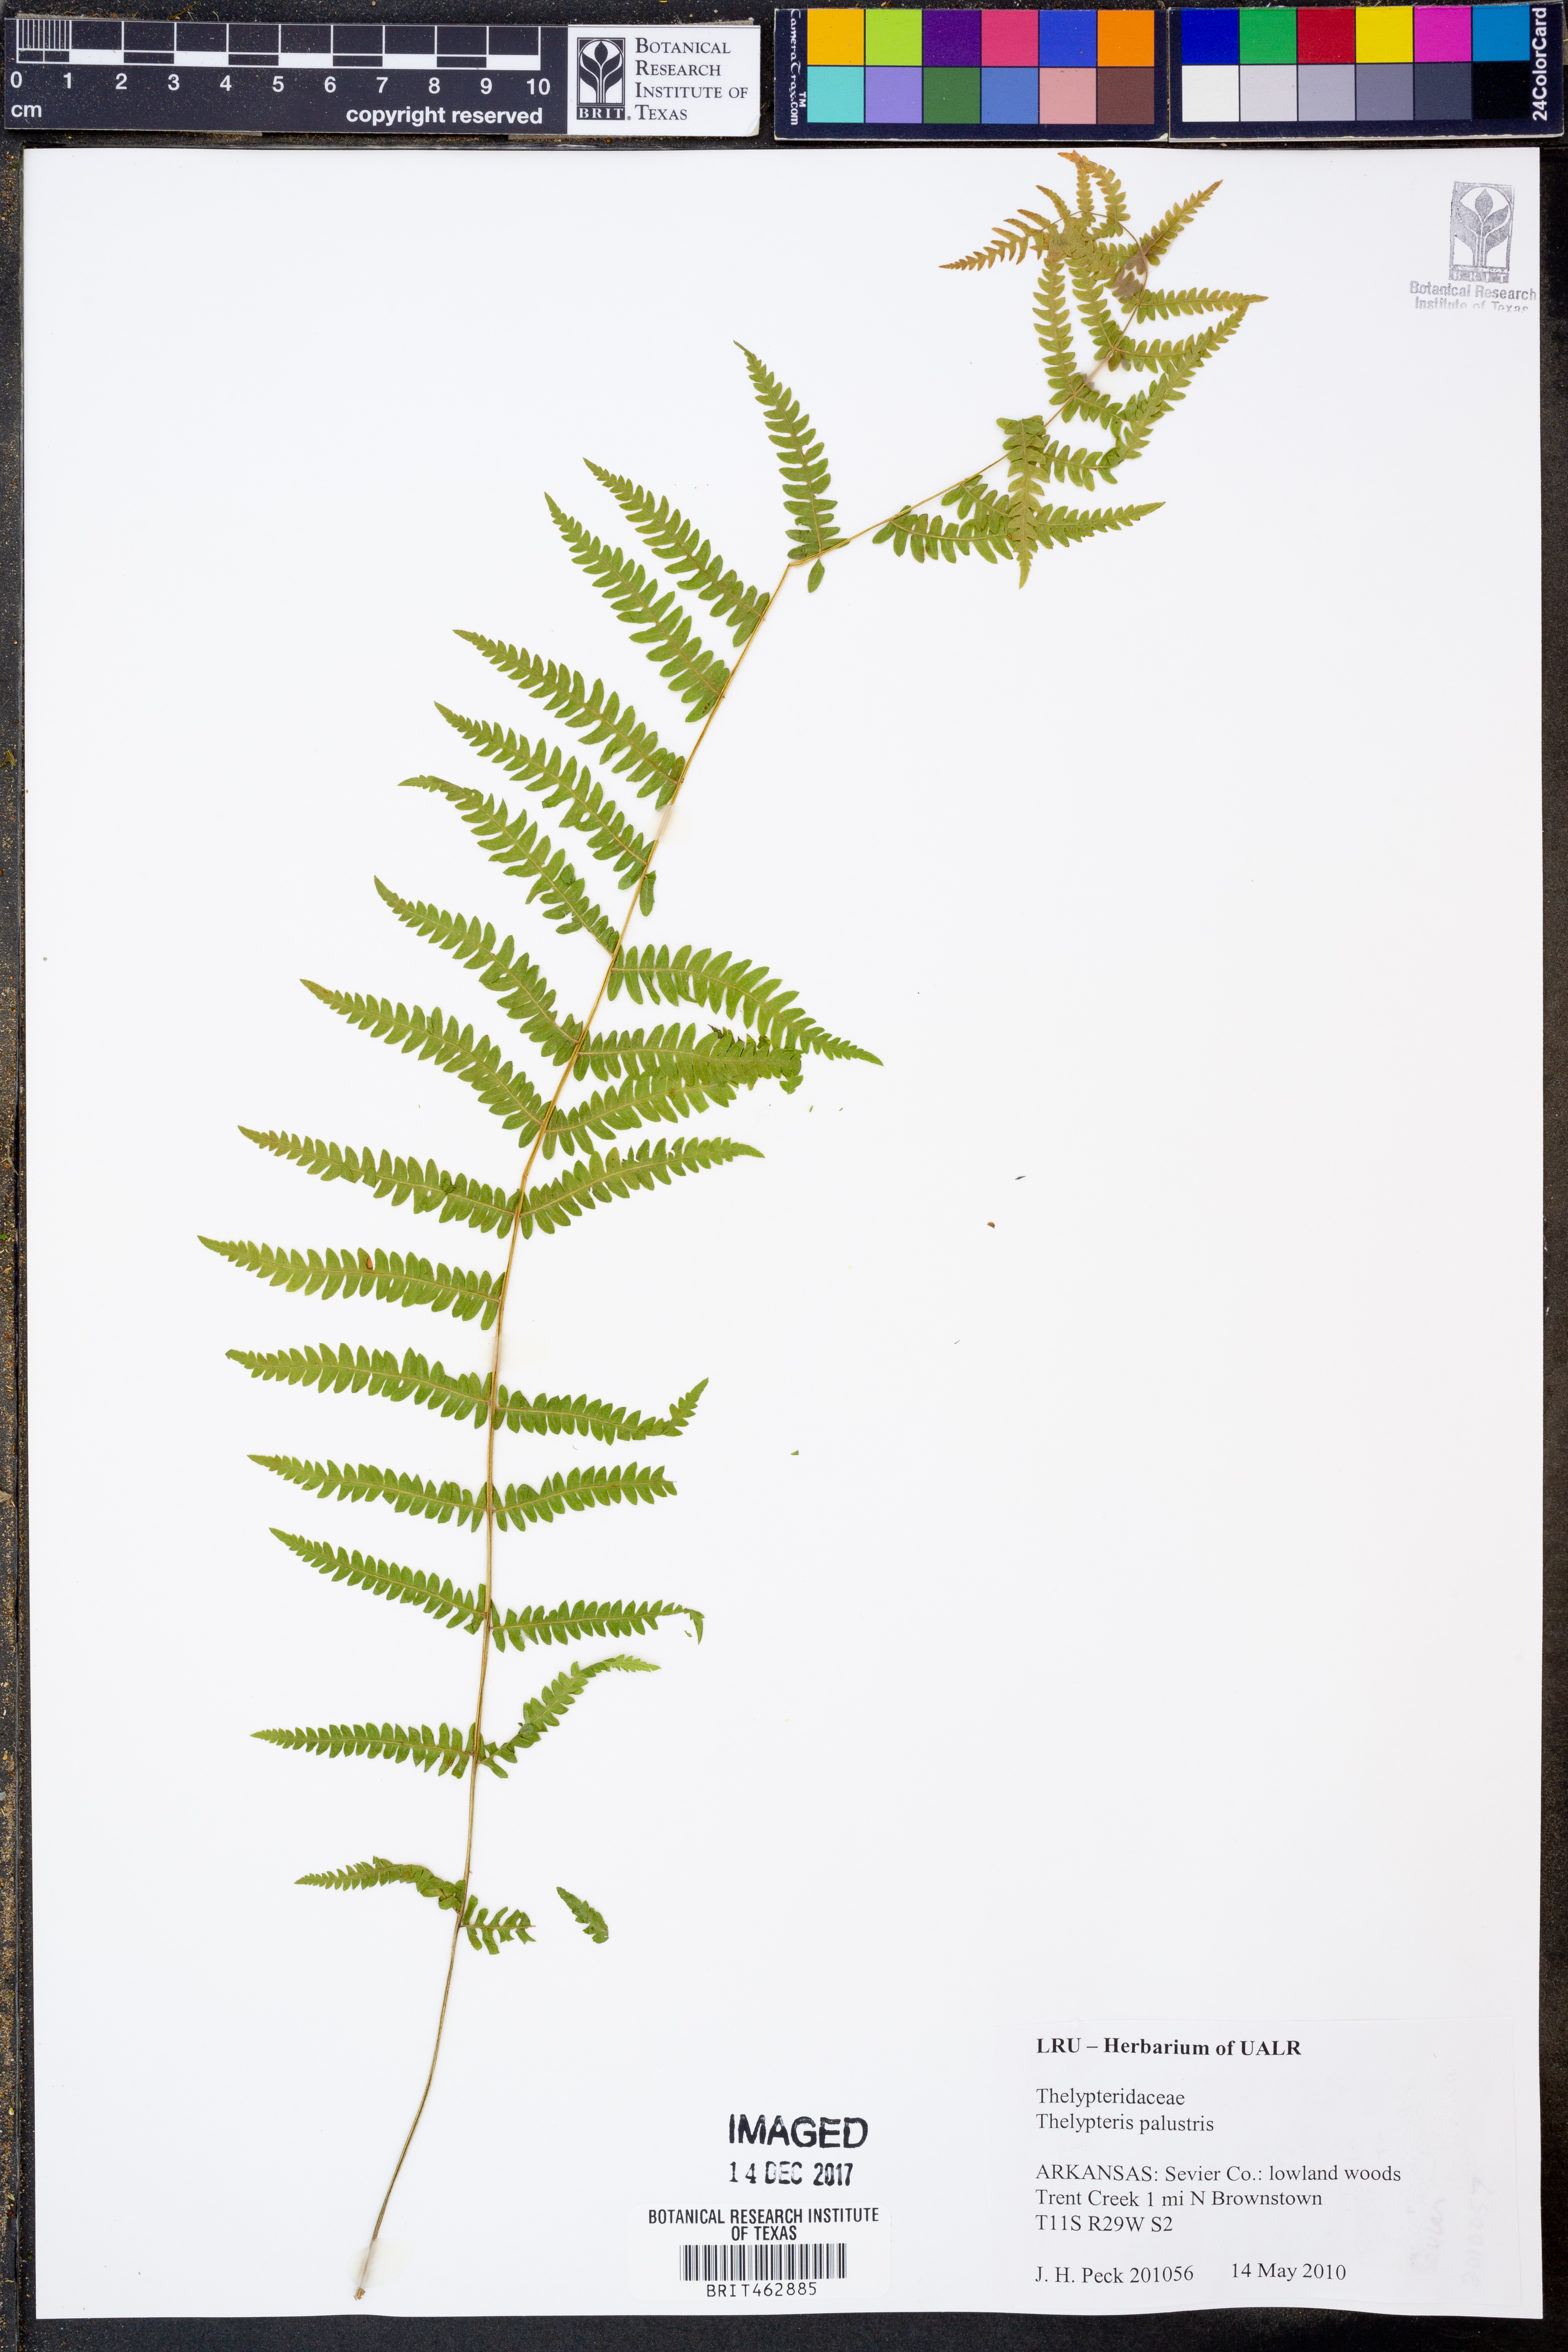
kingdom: Plantae
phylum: Tracheophyta
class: Polypodiopsida
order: Polypodiales
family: Thelypteridaceae
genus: Thelypteris
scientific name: Thelypteris palustris
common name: Marsh fern
